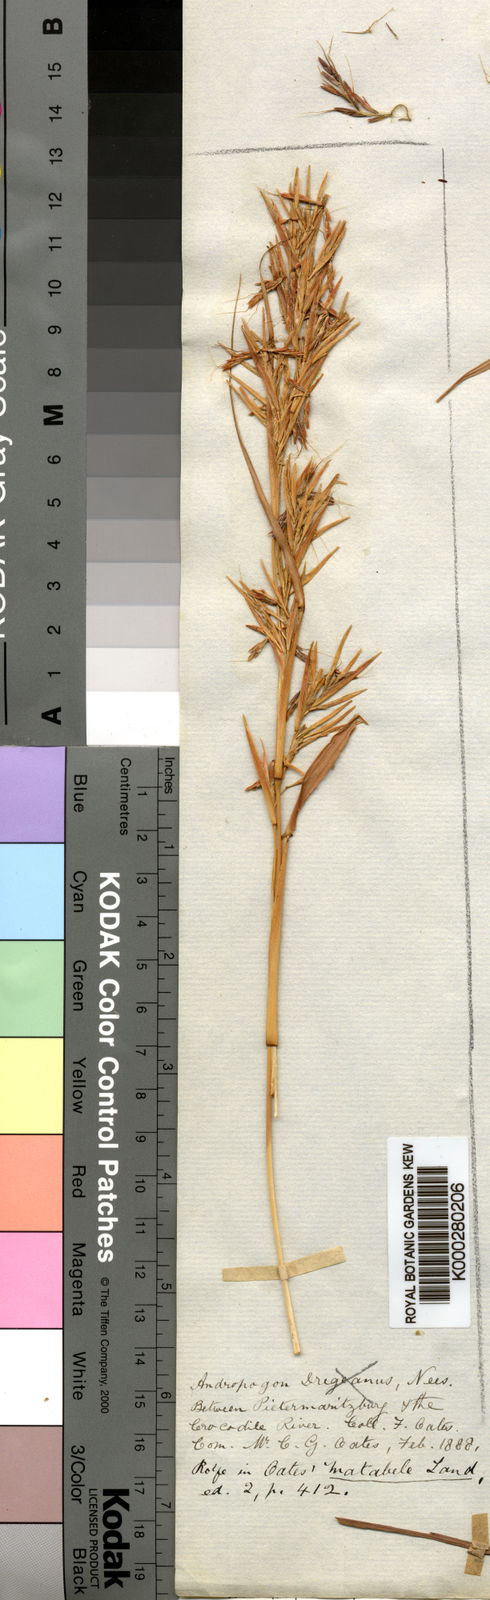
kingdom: Plantae
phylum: Tracheophyta
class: Liliopsida
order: Poales
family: Poaceae
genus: Hyparrhenia
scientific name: Hyparrhenia dregeana
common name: Silky thatching grass
